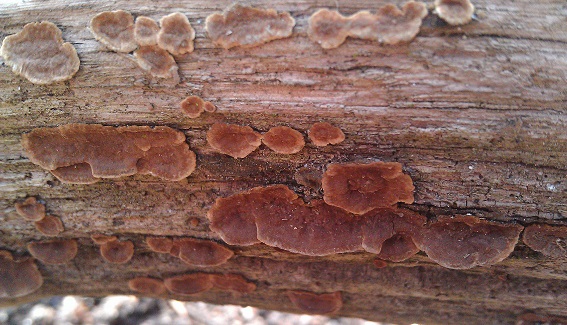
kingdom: Fungi
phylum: Basidiomycota
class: Agaricomycetes
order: Hymenochaetales
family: Hymenochaetaceae
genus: Hymenochaete
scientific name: Hymenochaete rubiginosa
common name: stiv ruslædersvamp
